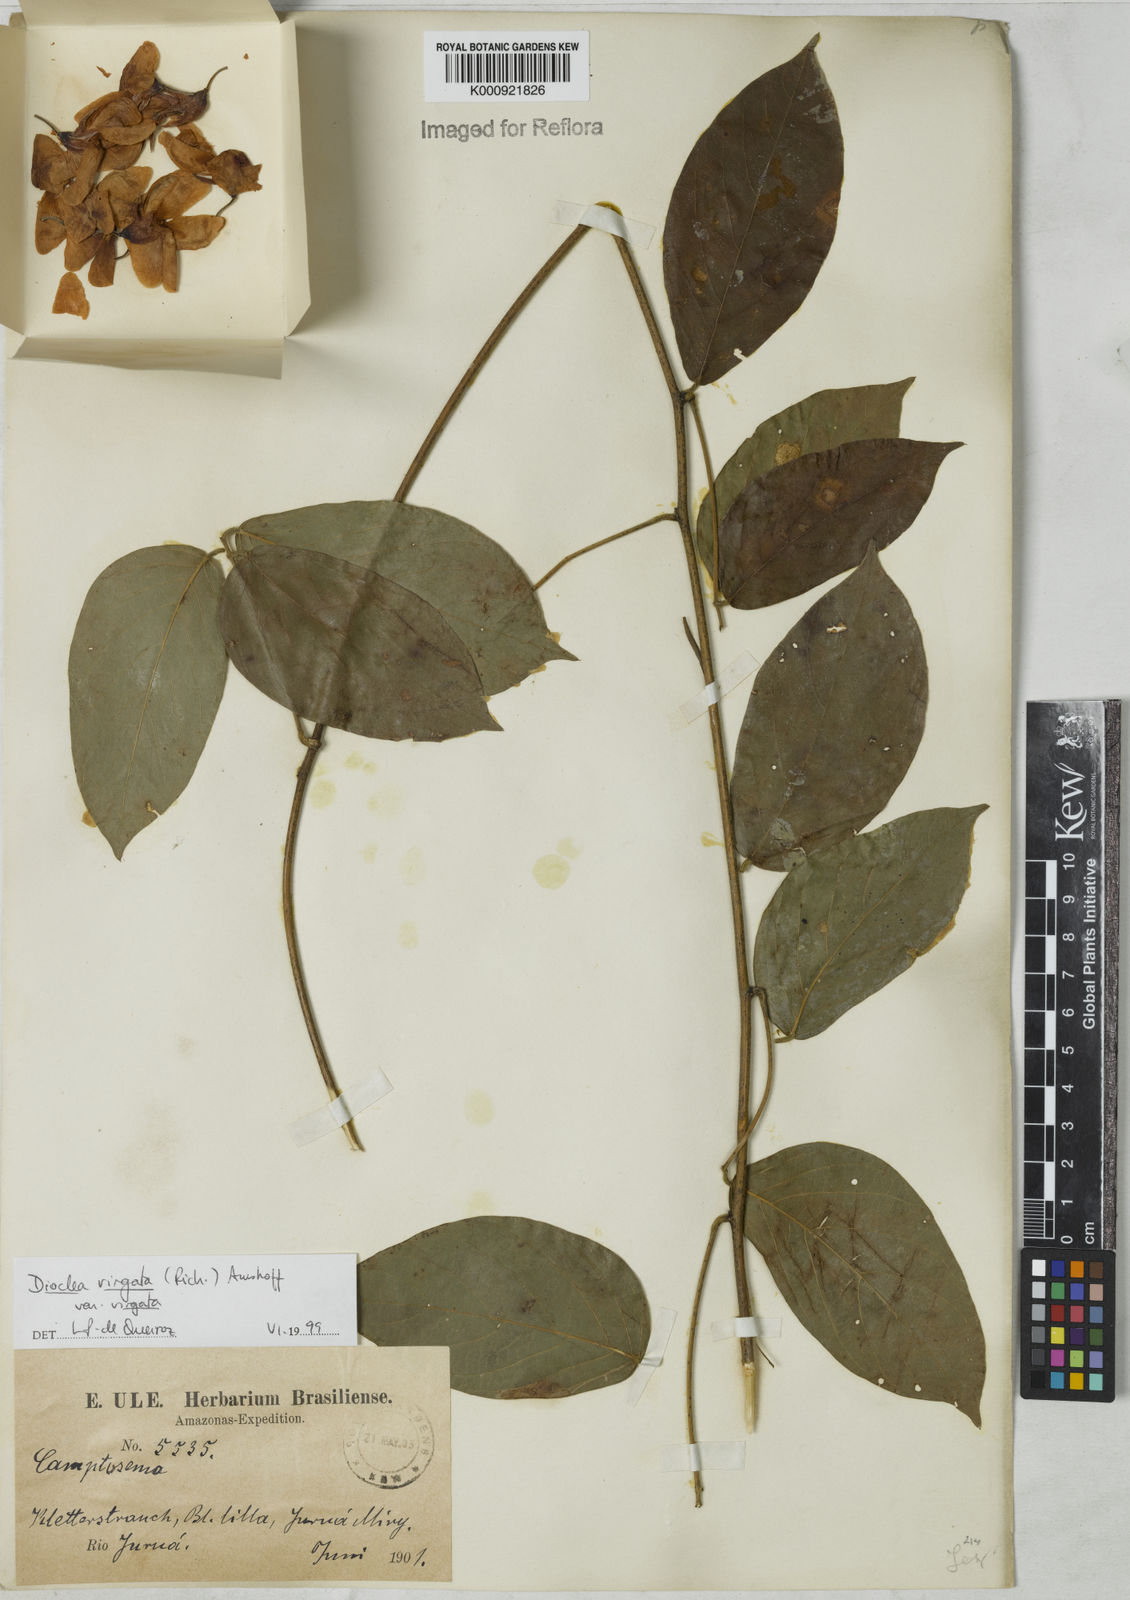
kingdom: Plantae
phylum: Tracheophyta
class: Magnoliopsida
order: Fabales
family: Fabaceae
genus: Dioclea
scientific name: Dioclea virgata
